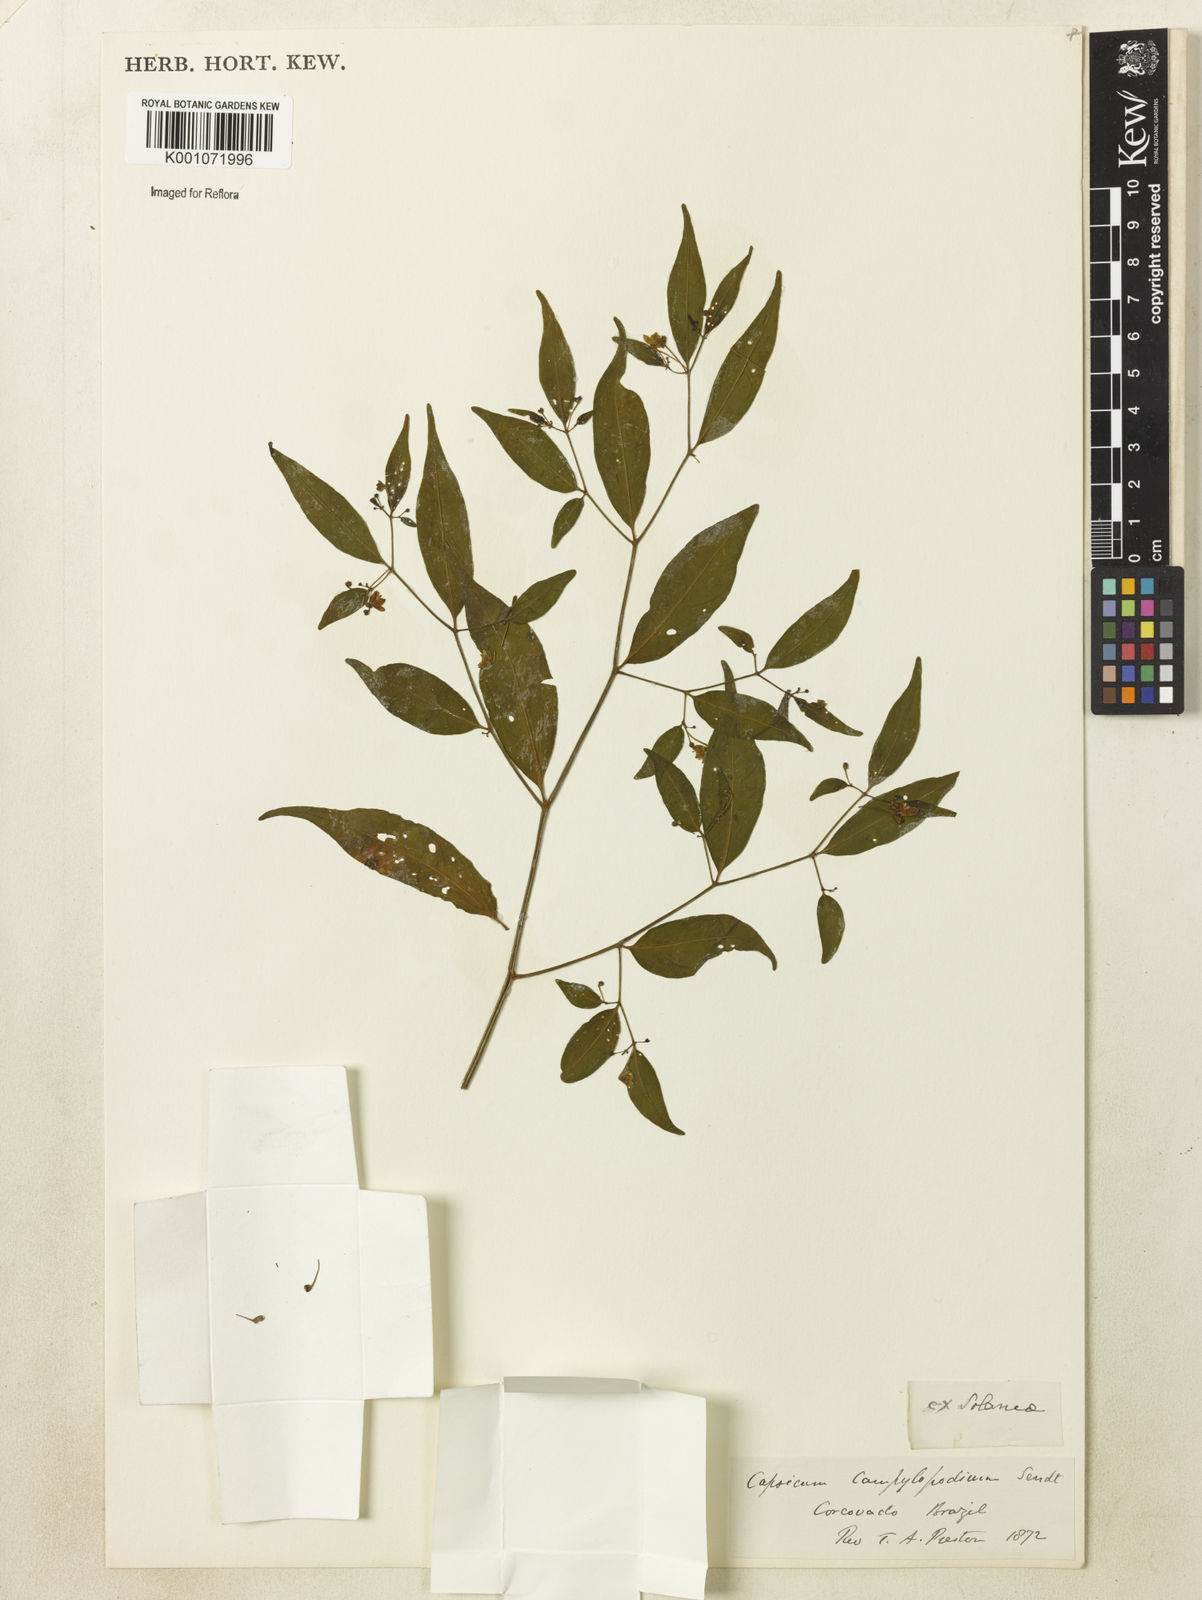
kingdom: Plantae
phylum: Tracheophyta
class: Magnoliopsida
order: Solanales
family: Solanaceae
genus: Capsicum
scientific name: Capsicum campylopodium
